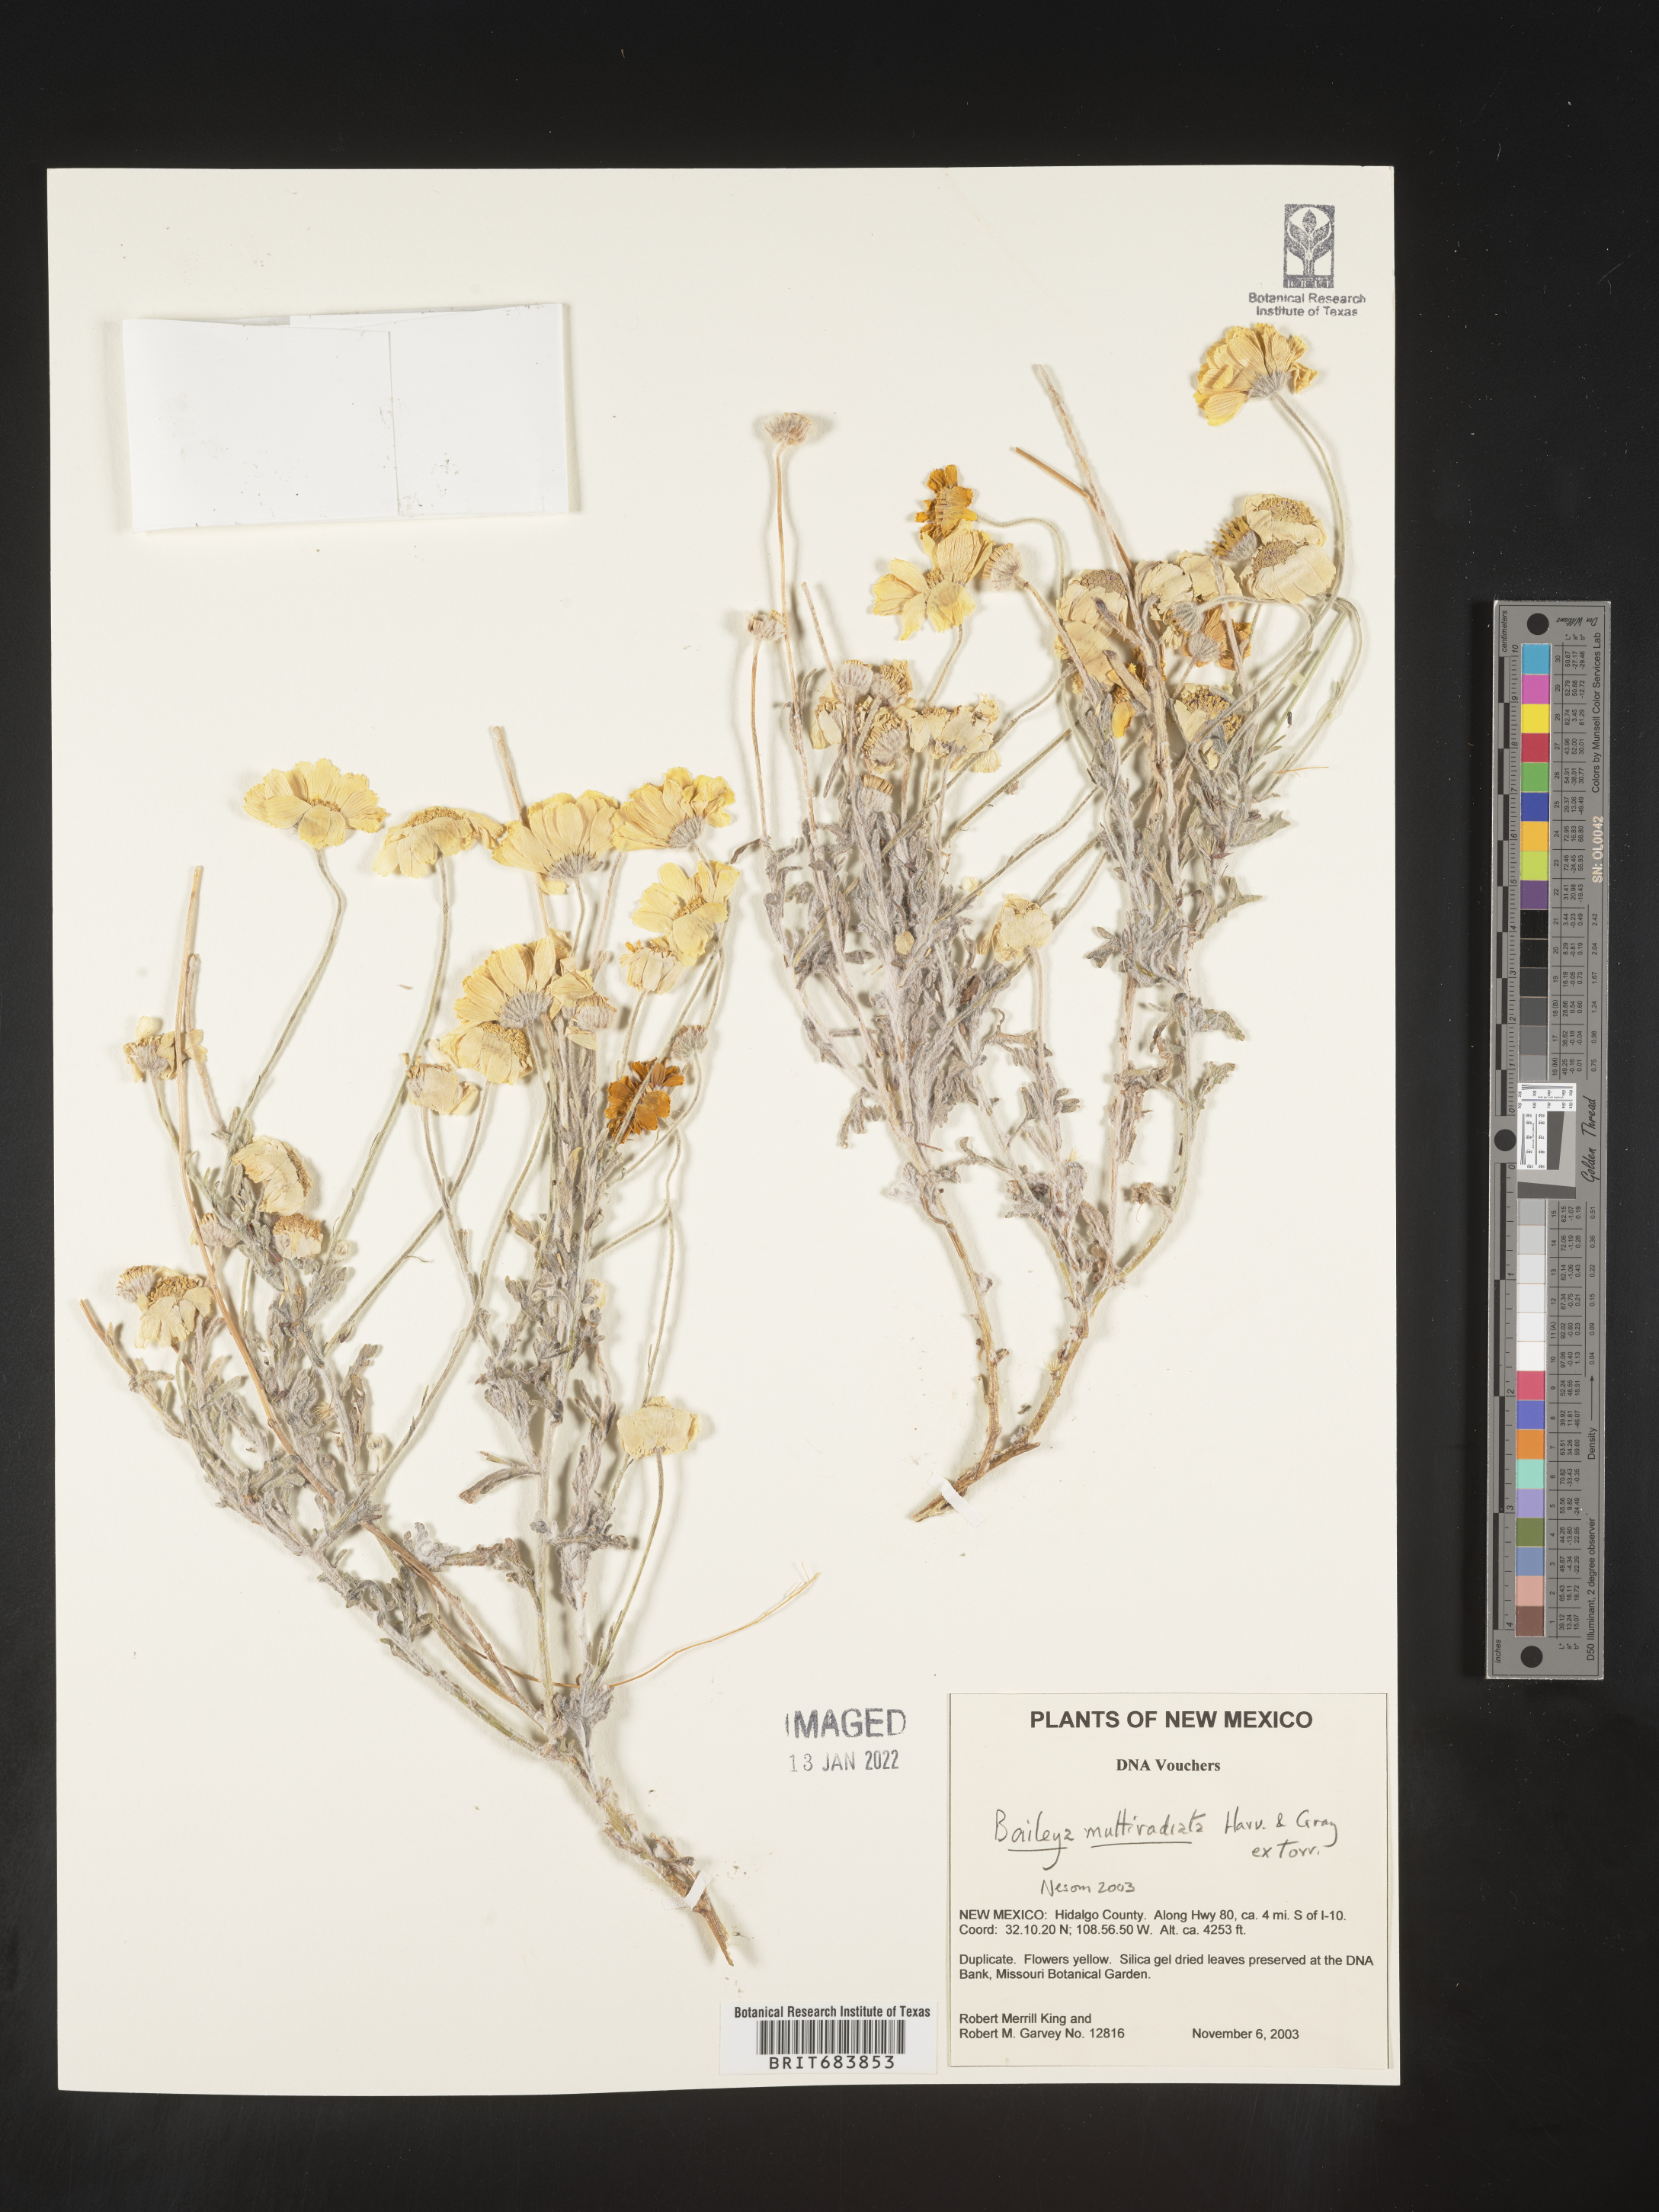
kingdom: Plantae
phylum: Tracheophyta
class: Magnoliopsida
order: Asterales
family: Asteraceae
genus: Baileya
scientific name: Baileya multiradiata
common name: Desert-marigold
